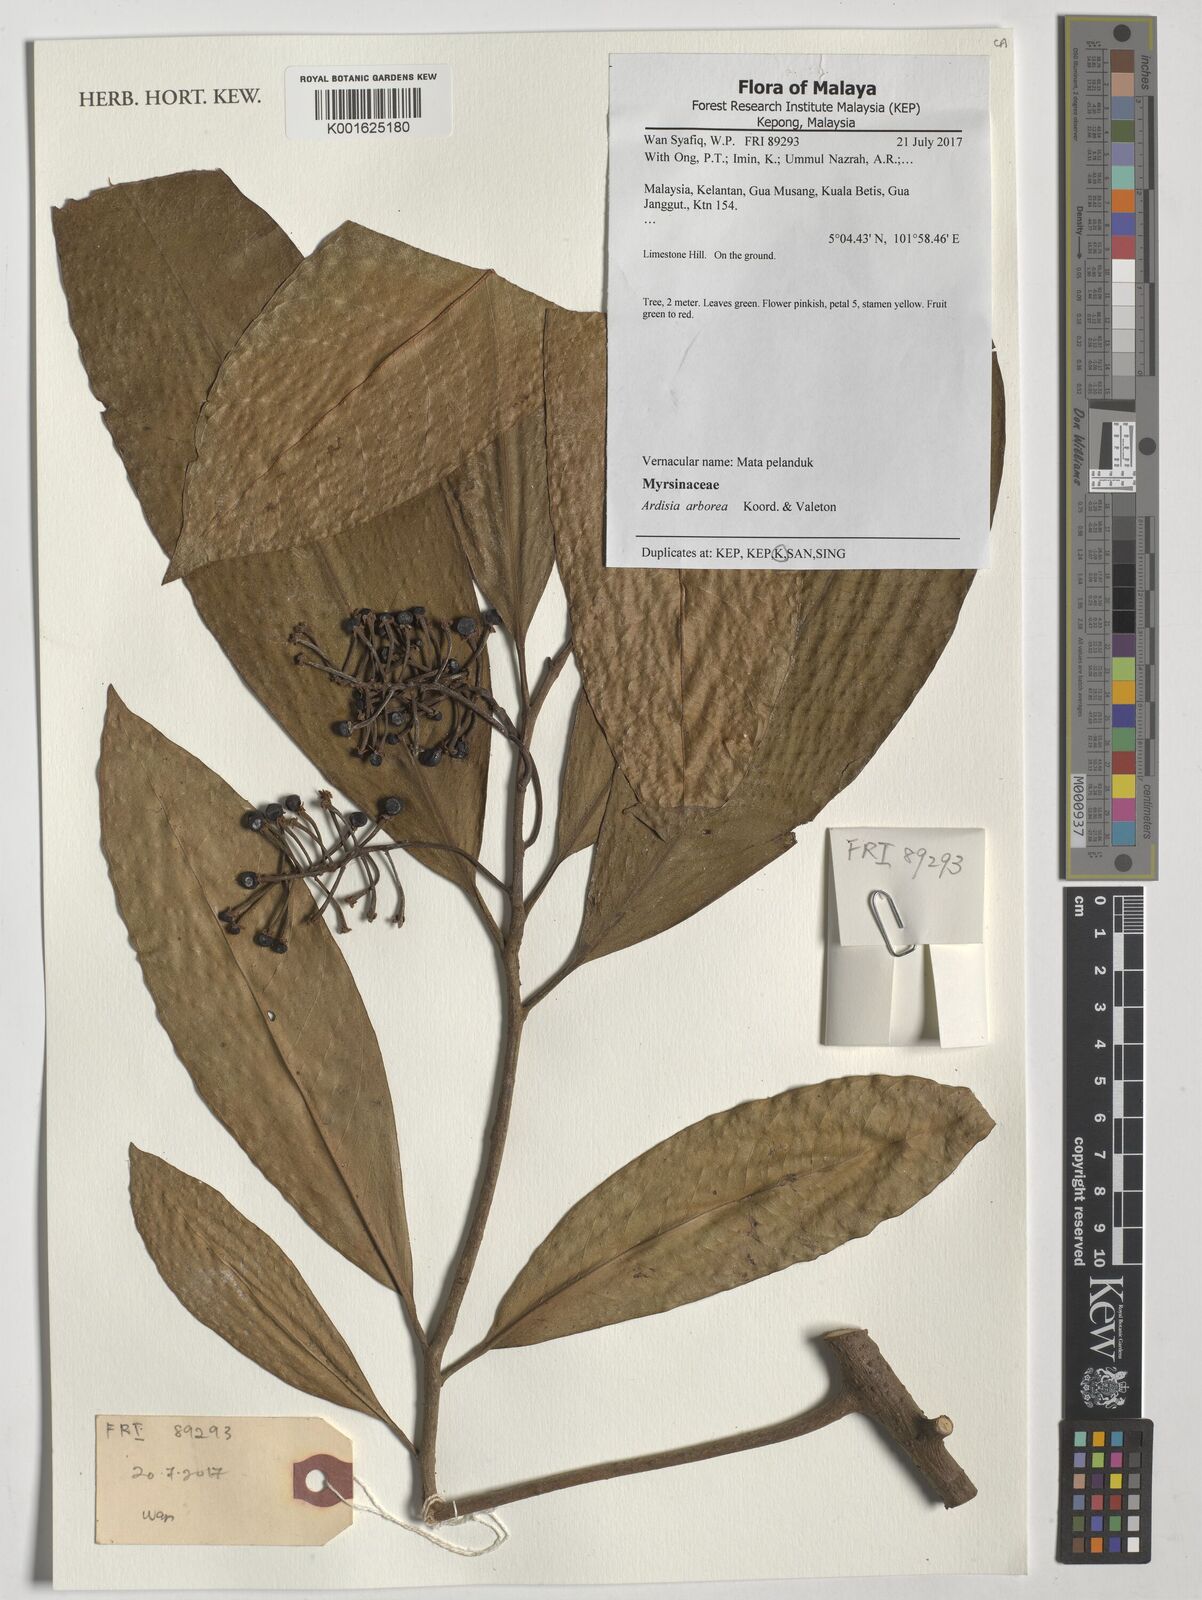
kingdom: Plantae
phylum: Tracheophyta
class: Magnoliopsida
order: Ericales
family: Primulaceae
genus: Ardisia
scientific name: Ardisia arborea
